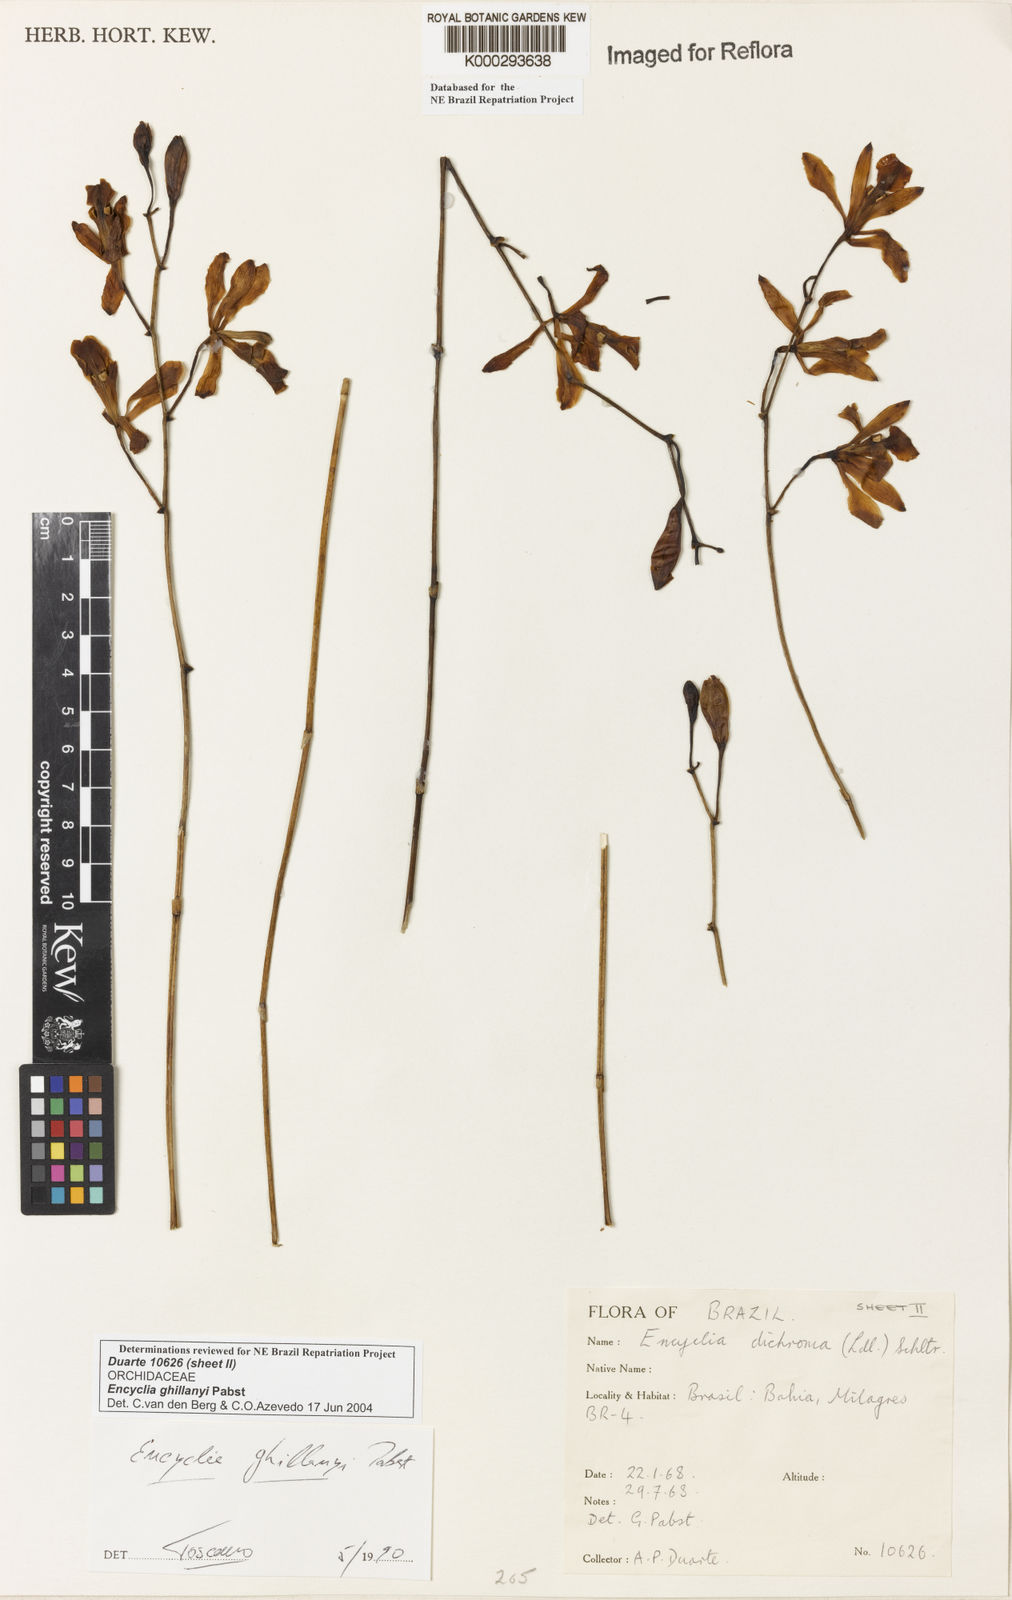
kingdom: Plantae
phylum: Tracheophyta
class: Liliopsida
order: Asparagales
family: Orchidaceae
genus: Encyclia
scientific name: Encyclia jenischiana
